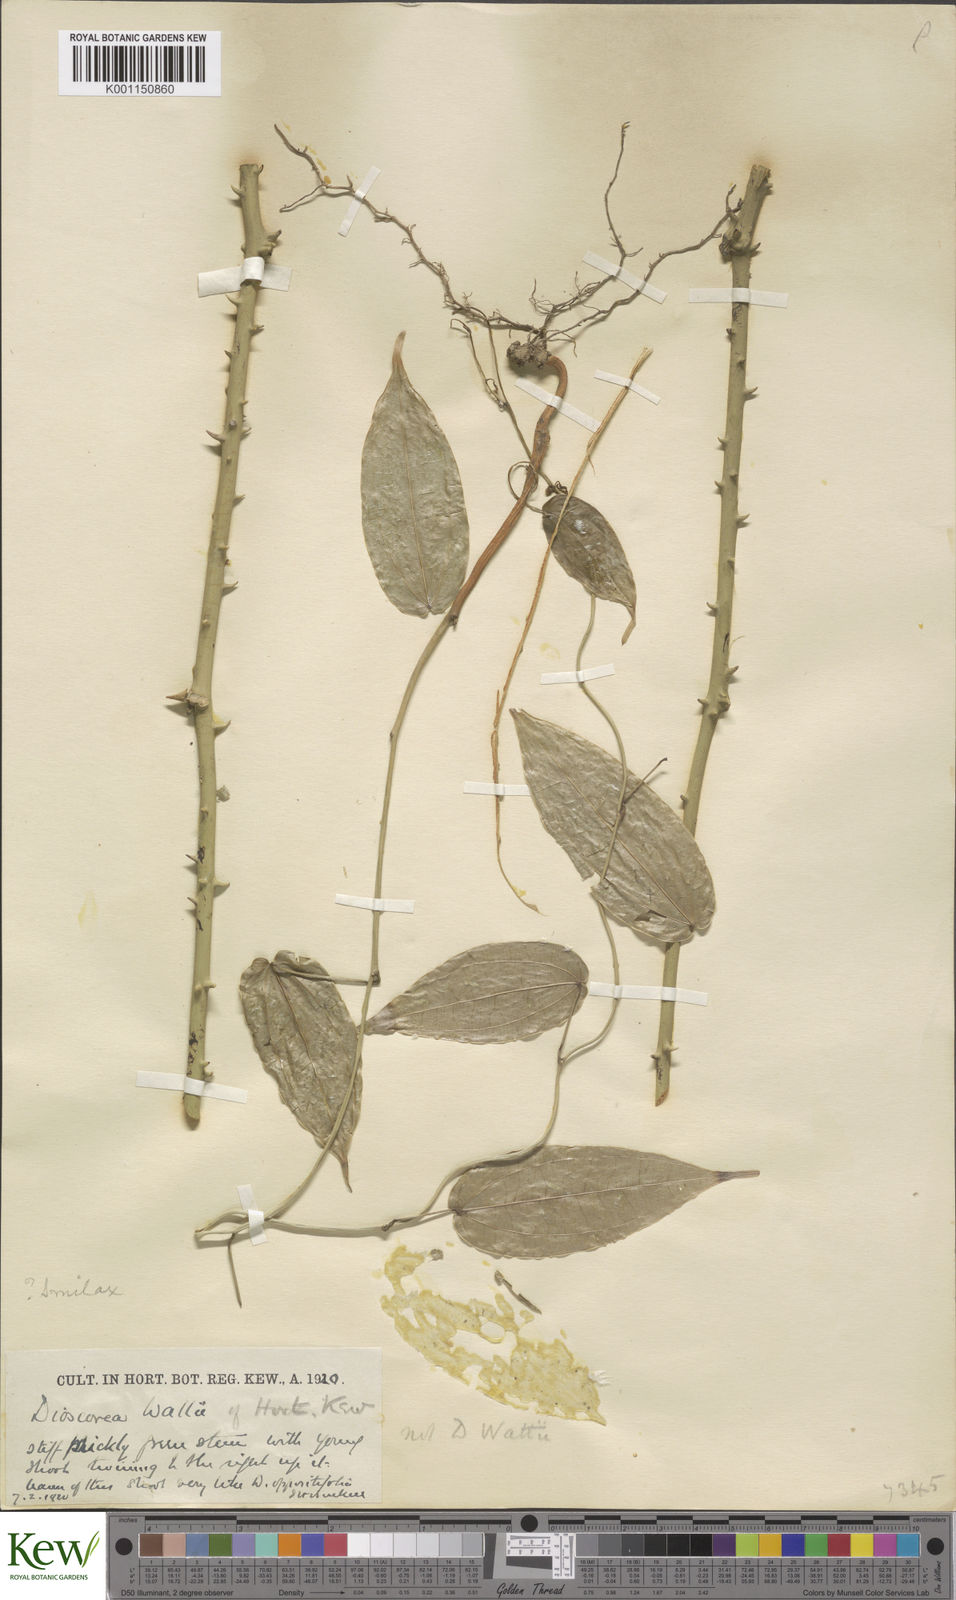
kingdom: Plantae
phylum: Tracheophyta
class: Liliopsida
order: Dioscoreales
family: Dioscoreaceae
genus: Dioscorea
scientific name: Dioscorea
